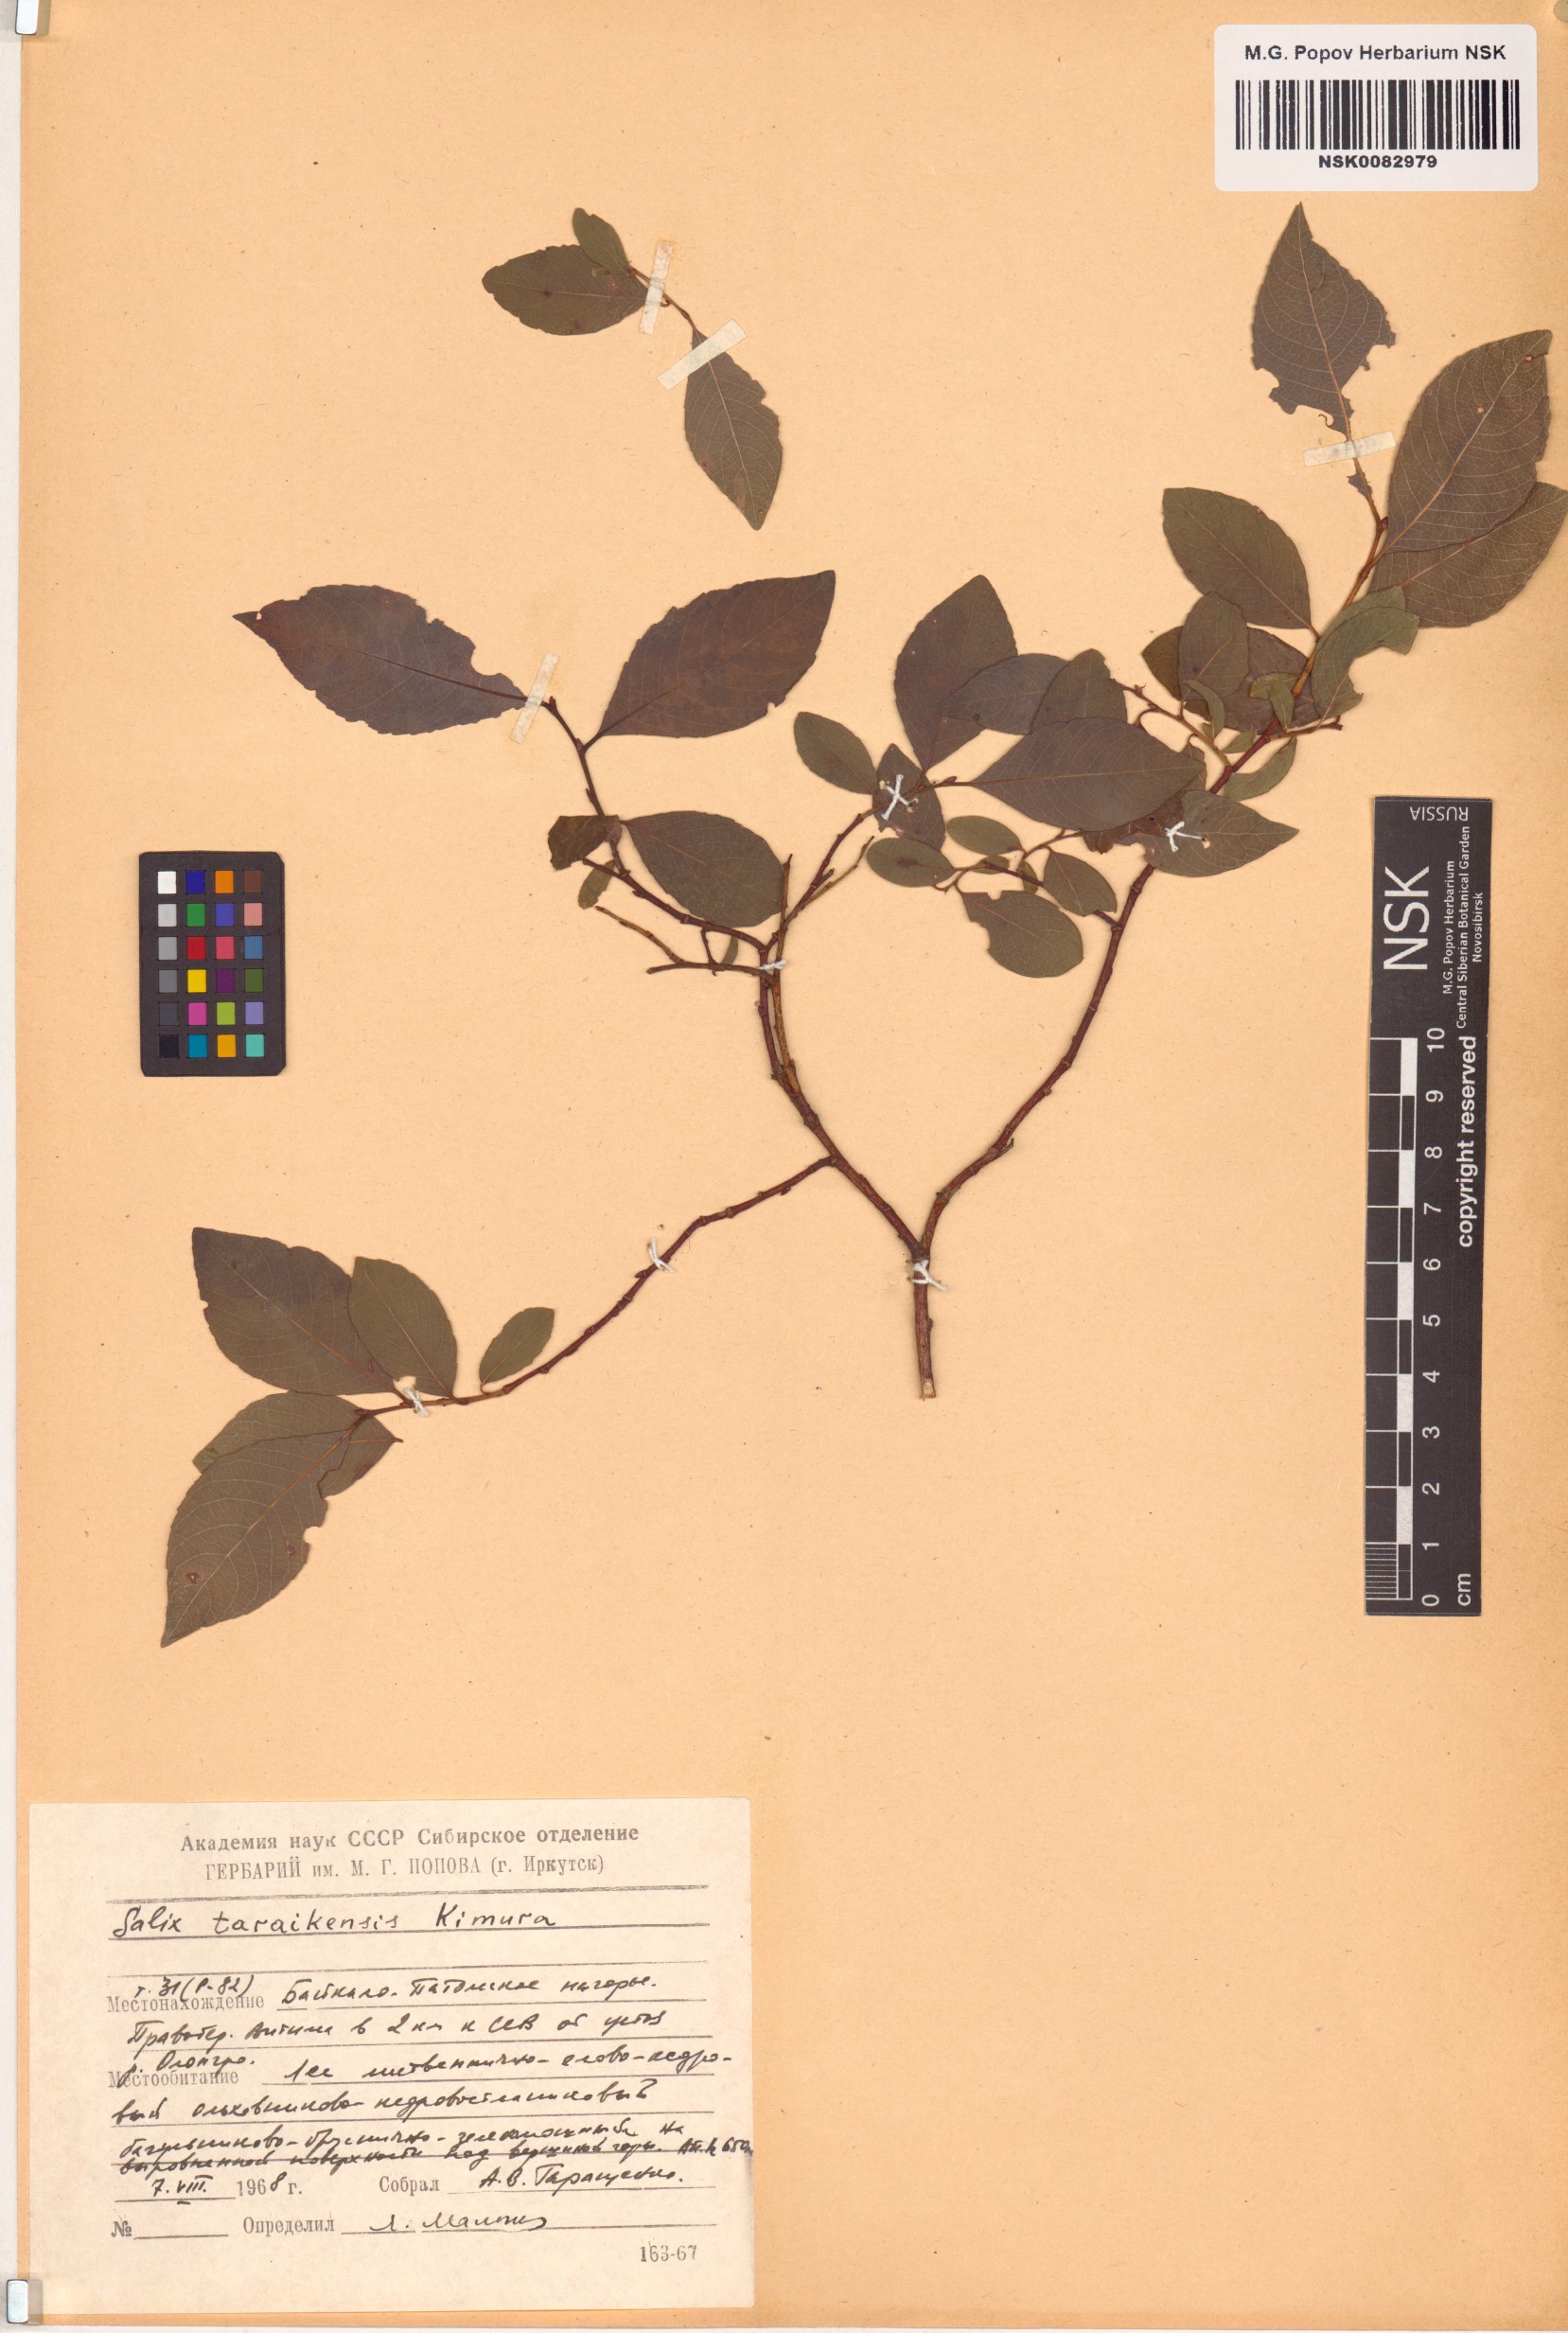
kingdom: Plantae
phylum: Tracheophyta
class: Magnoliopsida
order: Malpighiales
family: Salicaceae
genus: Salix
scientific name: Salix taraikensis
